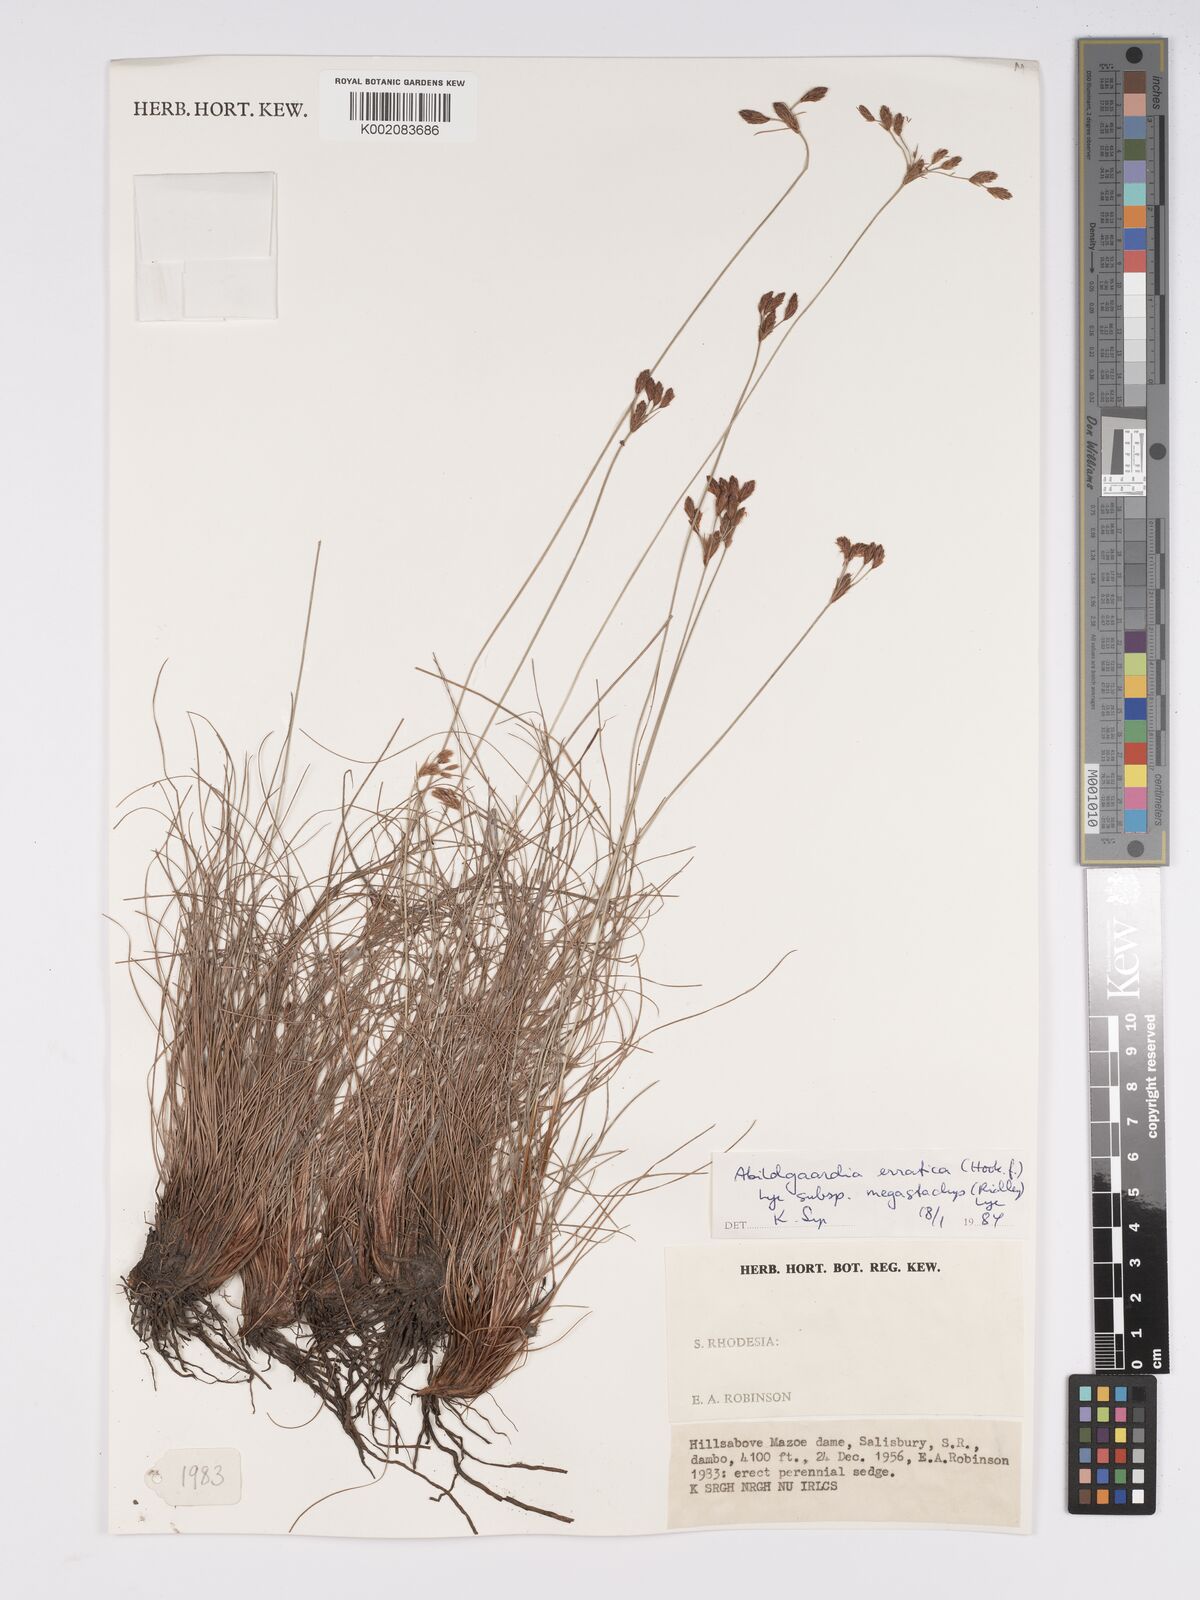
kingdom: Plantae
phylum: Tracheophyta
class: Liliopsida
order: Poales
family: Cyperaceae
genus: Bulbostylis
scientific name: Bulbostylis schoenoides
